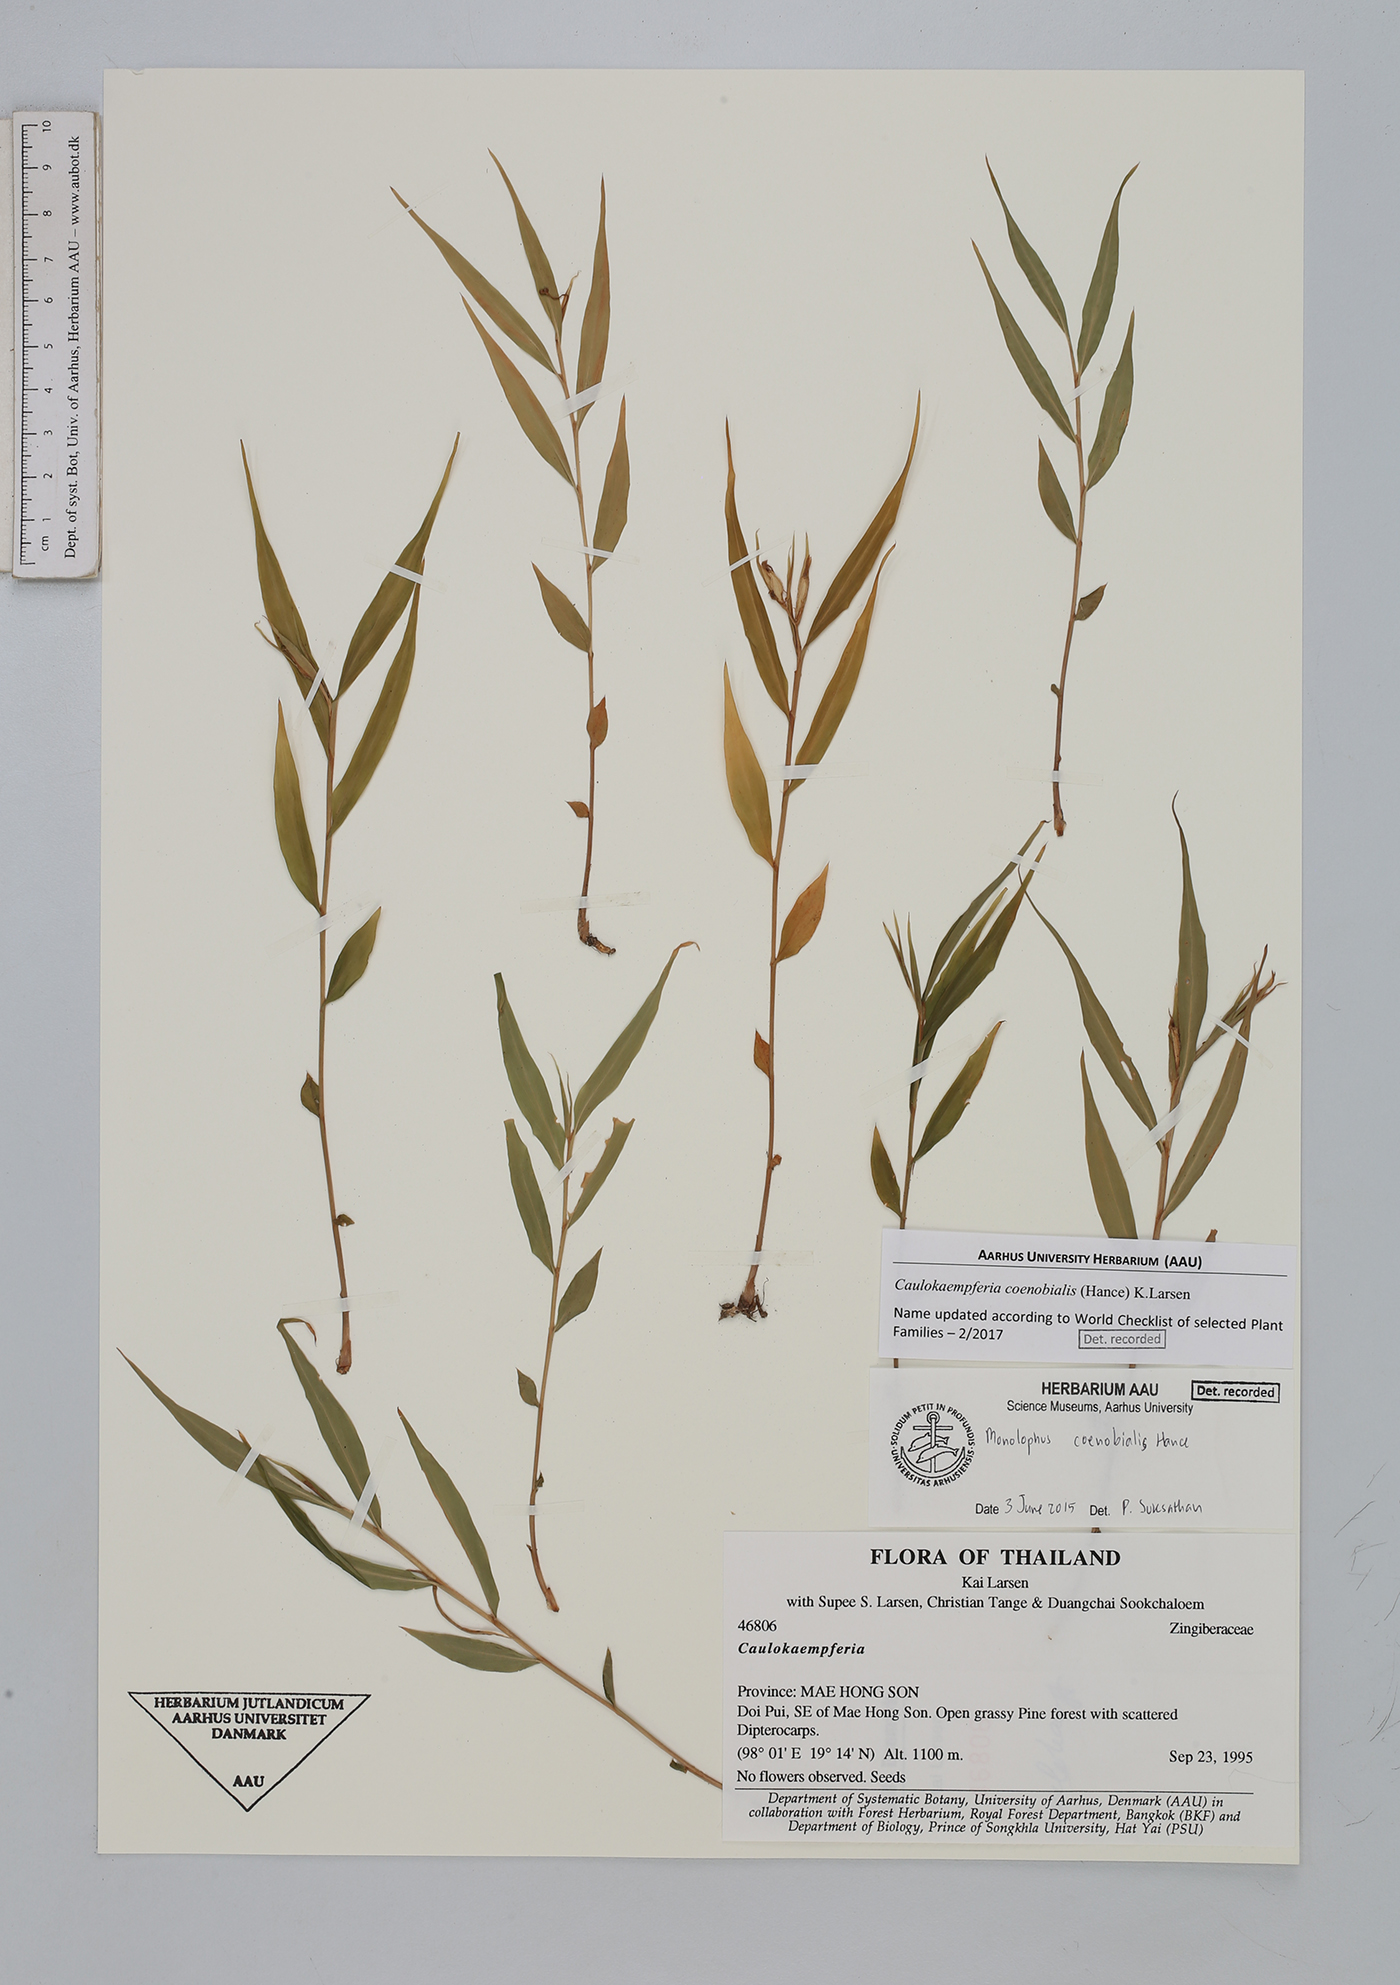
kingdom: Plantae
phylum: Tracheophyta
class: Liliopsida
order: Zingiberales
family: Zingiberaceae
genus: Caulokaempferia
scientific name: Caulokaempferia coenobialis
